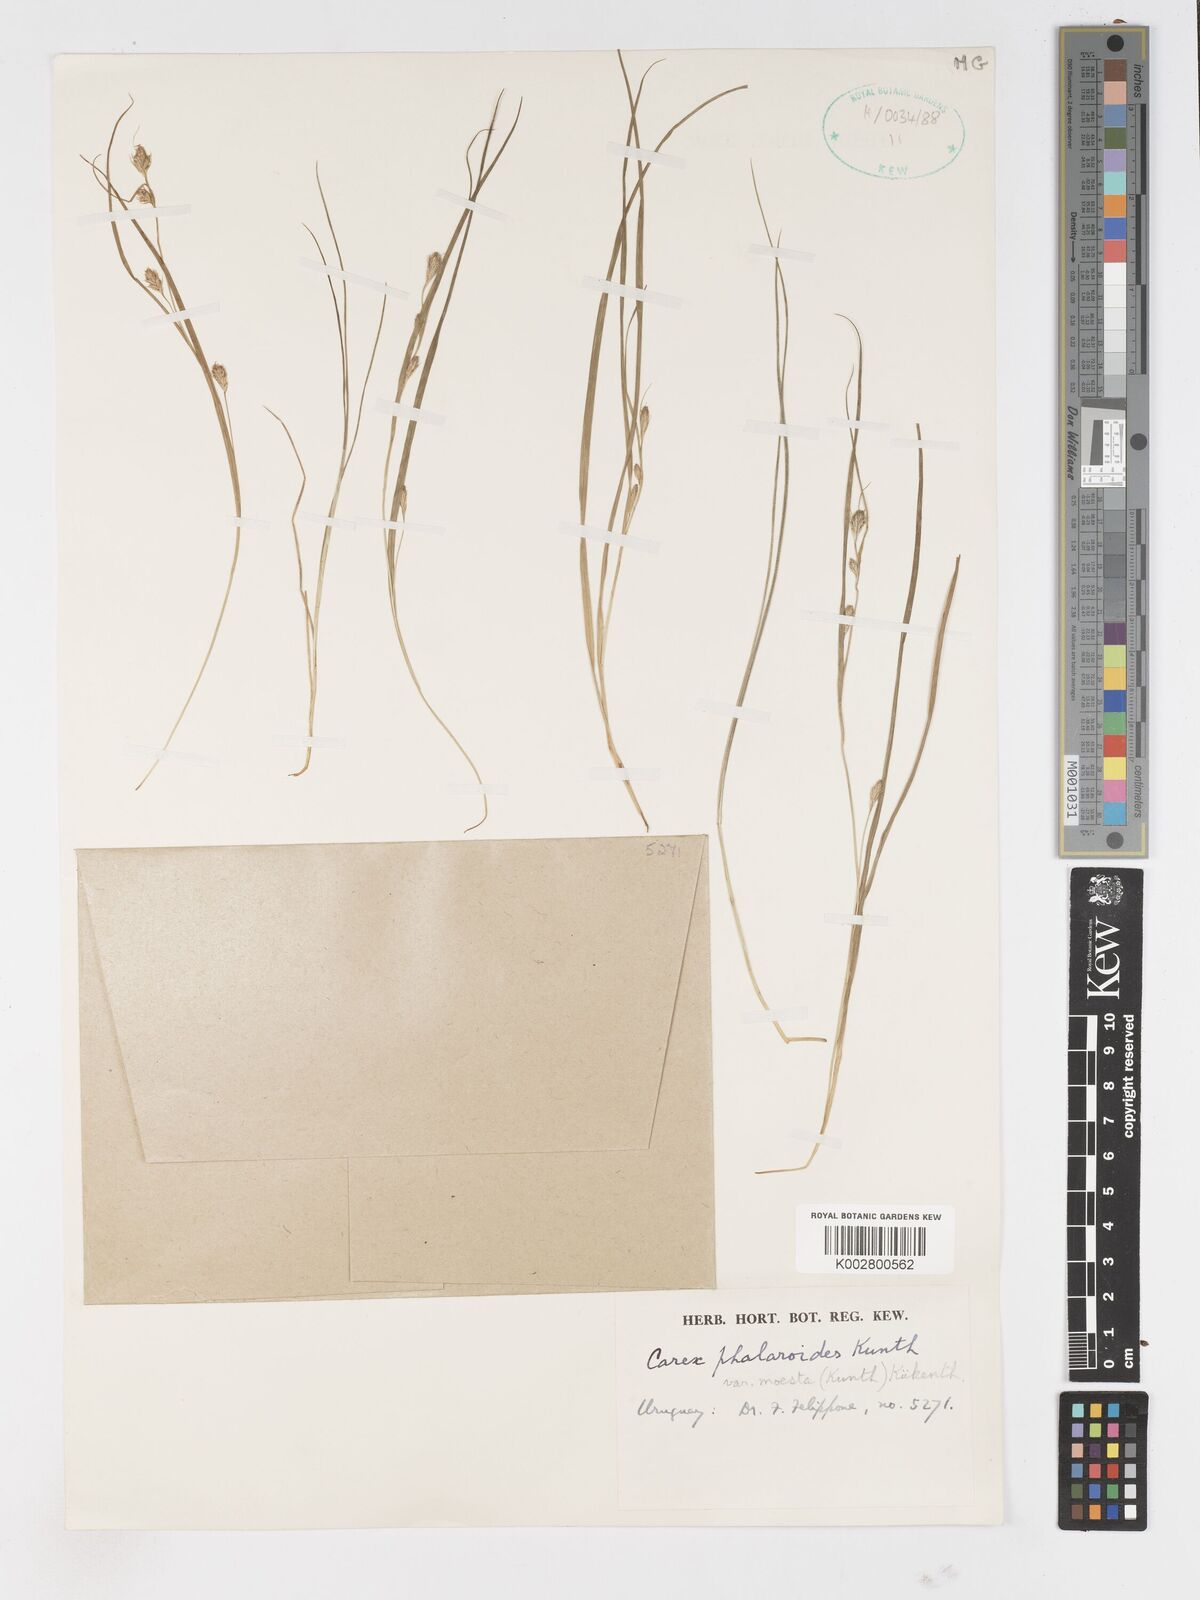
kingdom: Plantae
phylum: Tracheophyta
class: Liliopsida
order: Poales
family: Cyperaceae
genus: Carex
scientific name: Carex phalaroides
